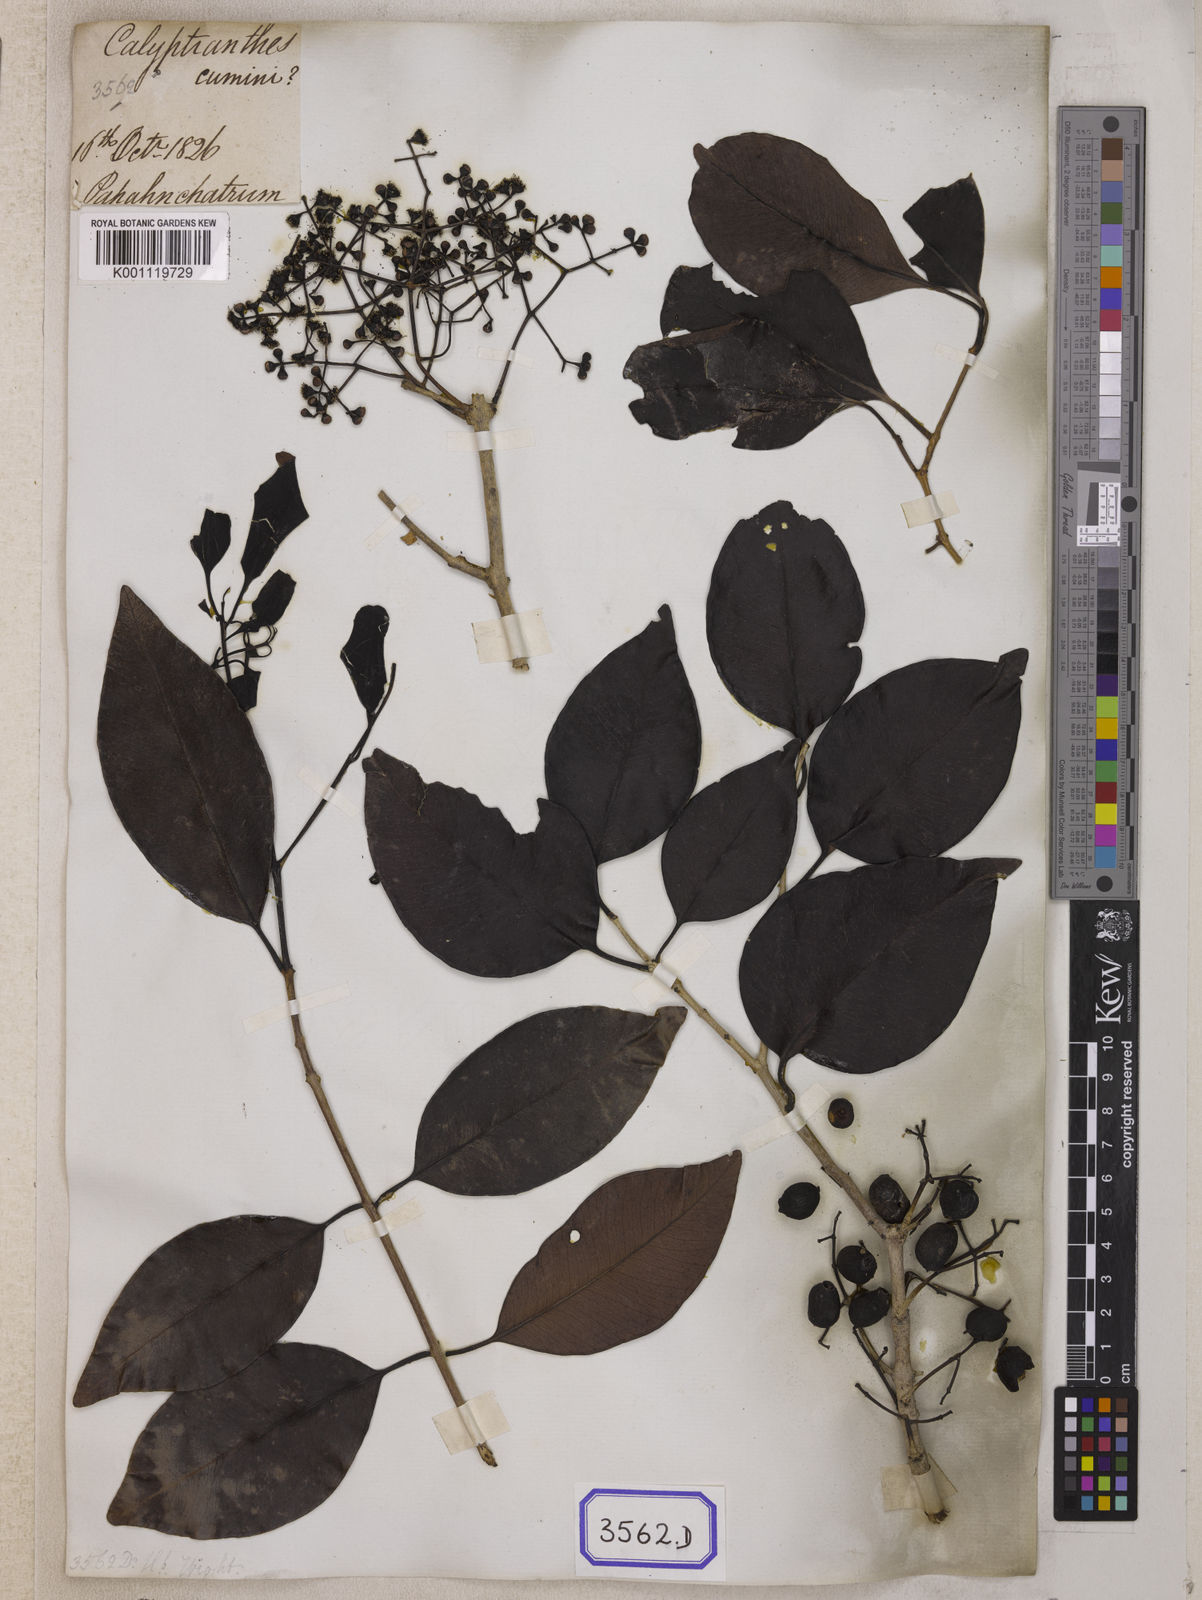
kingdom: Plantae
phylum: Tracheophyta
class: Magnoliopsida
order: Myrtales
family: Myrtaceae
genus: Syzygium
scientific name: Syzygium cumini
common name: Java plum
